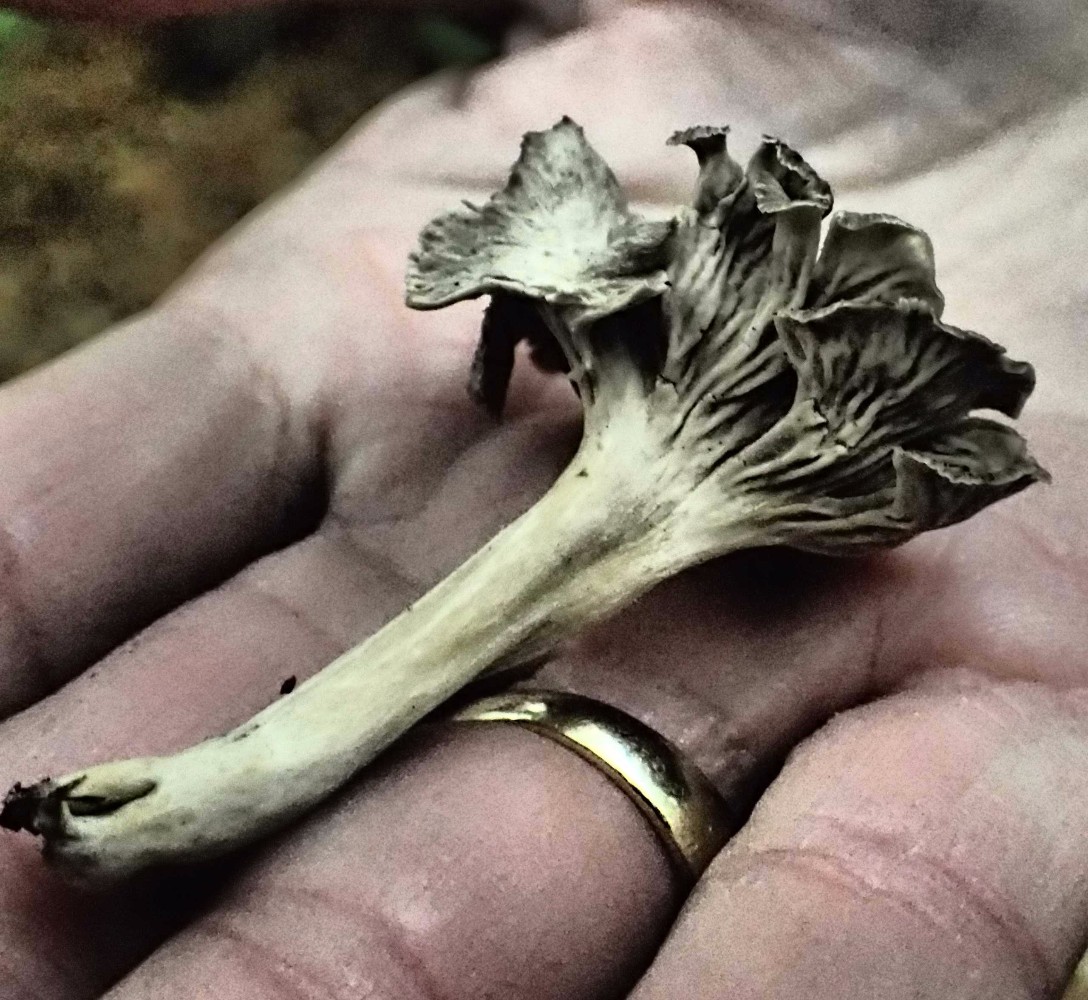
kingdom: Fungi
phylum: Basidiomycota
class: Agaricomycetes
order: Cantharellales
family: Hydnaceae
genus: Cantharellus
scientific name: Cantharellus cinereus
